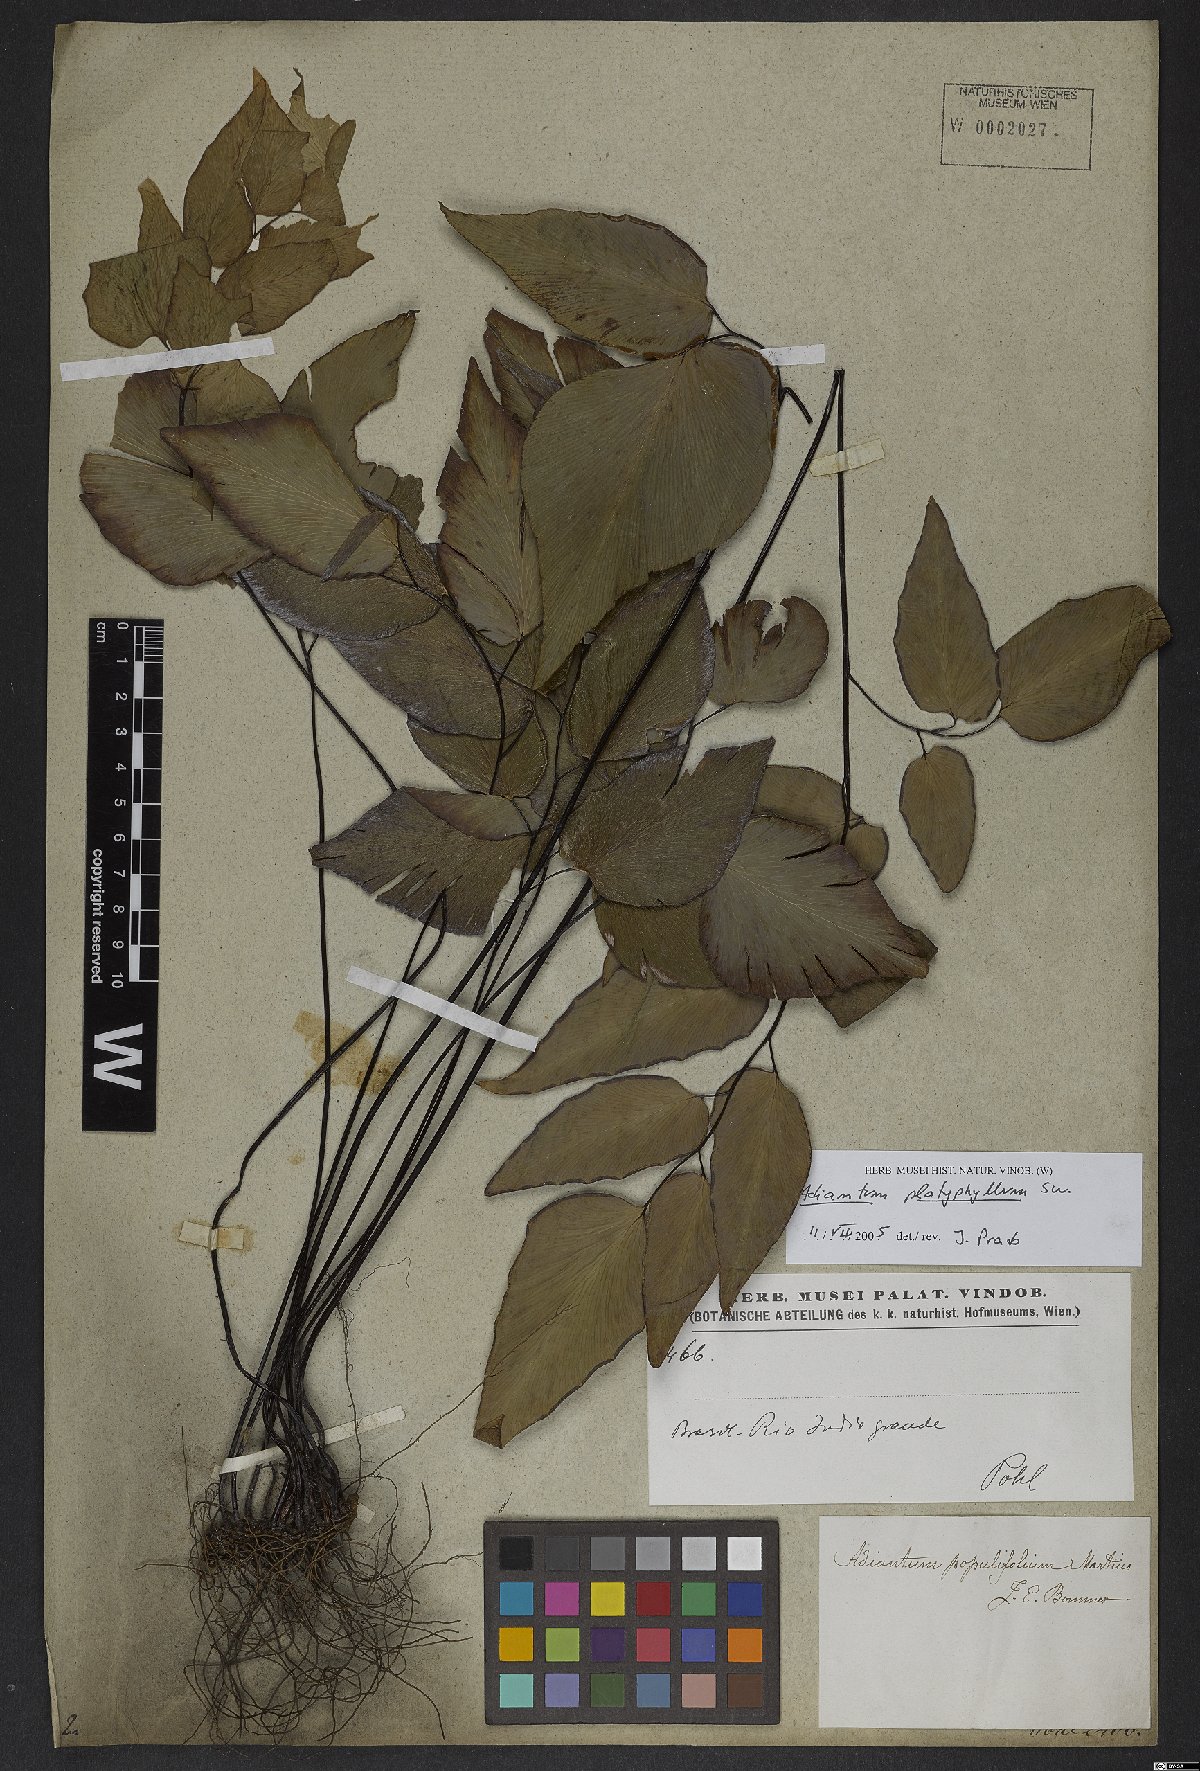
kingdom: Plantae
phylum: Tracheophyta
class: Polypodiopsida
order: Polypodiales
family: Pteridaceae
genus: Adiantum
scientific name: Adiantum platyphyllum
